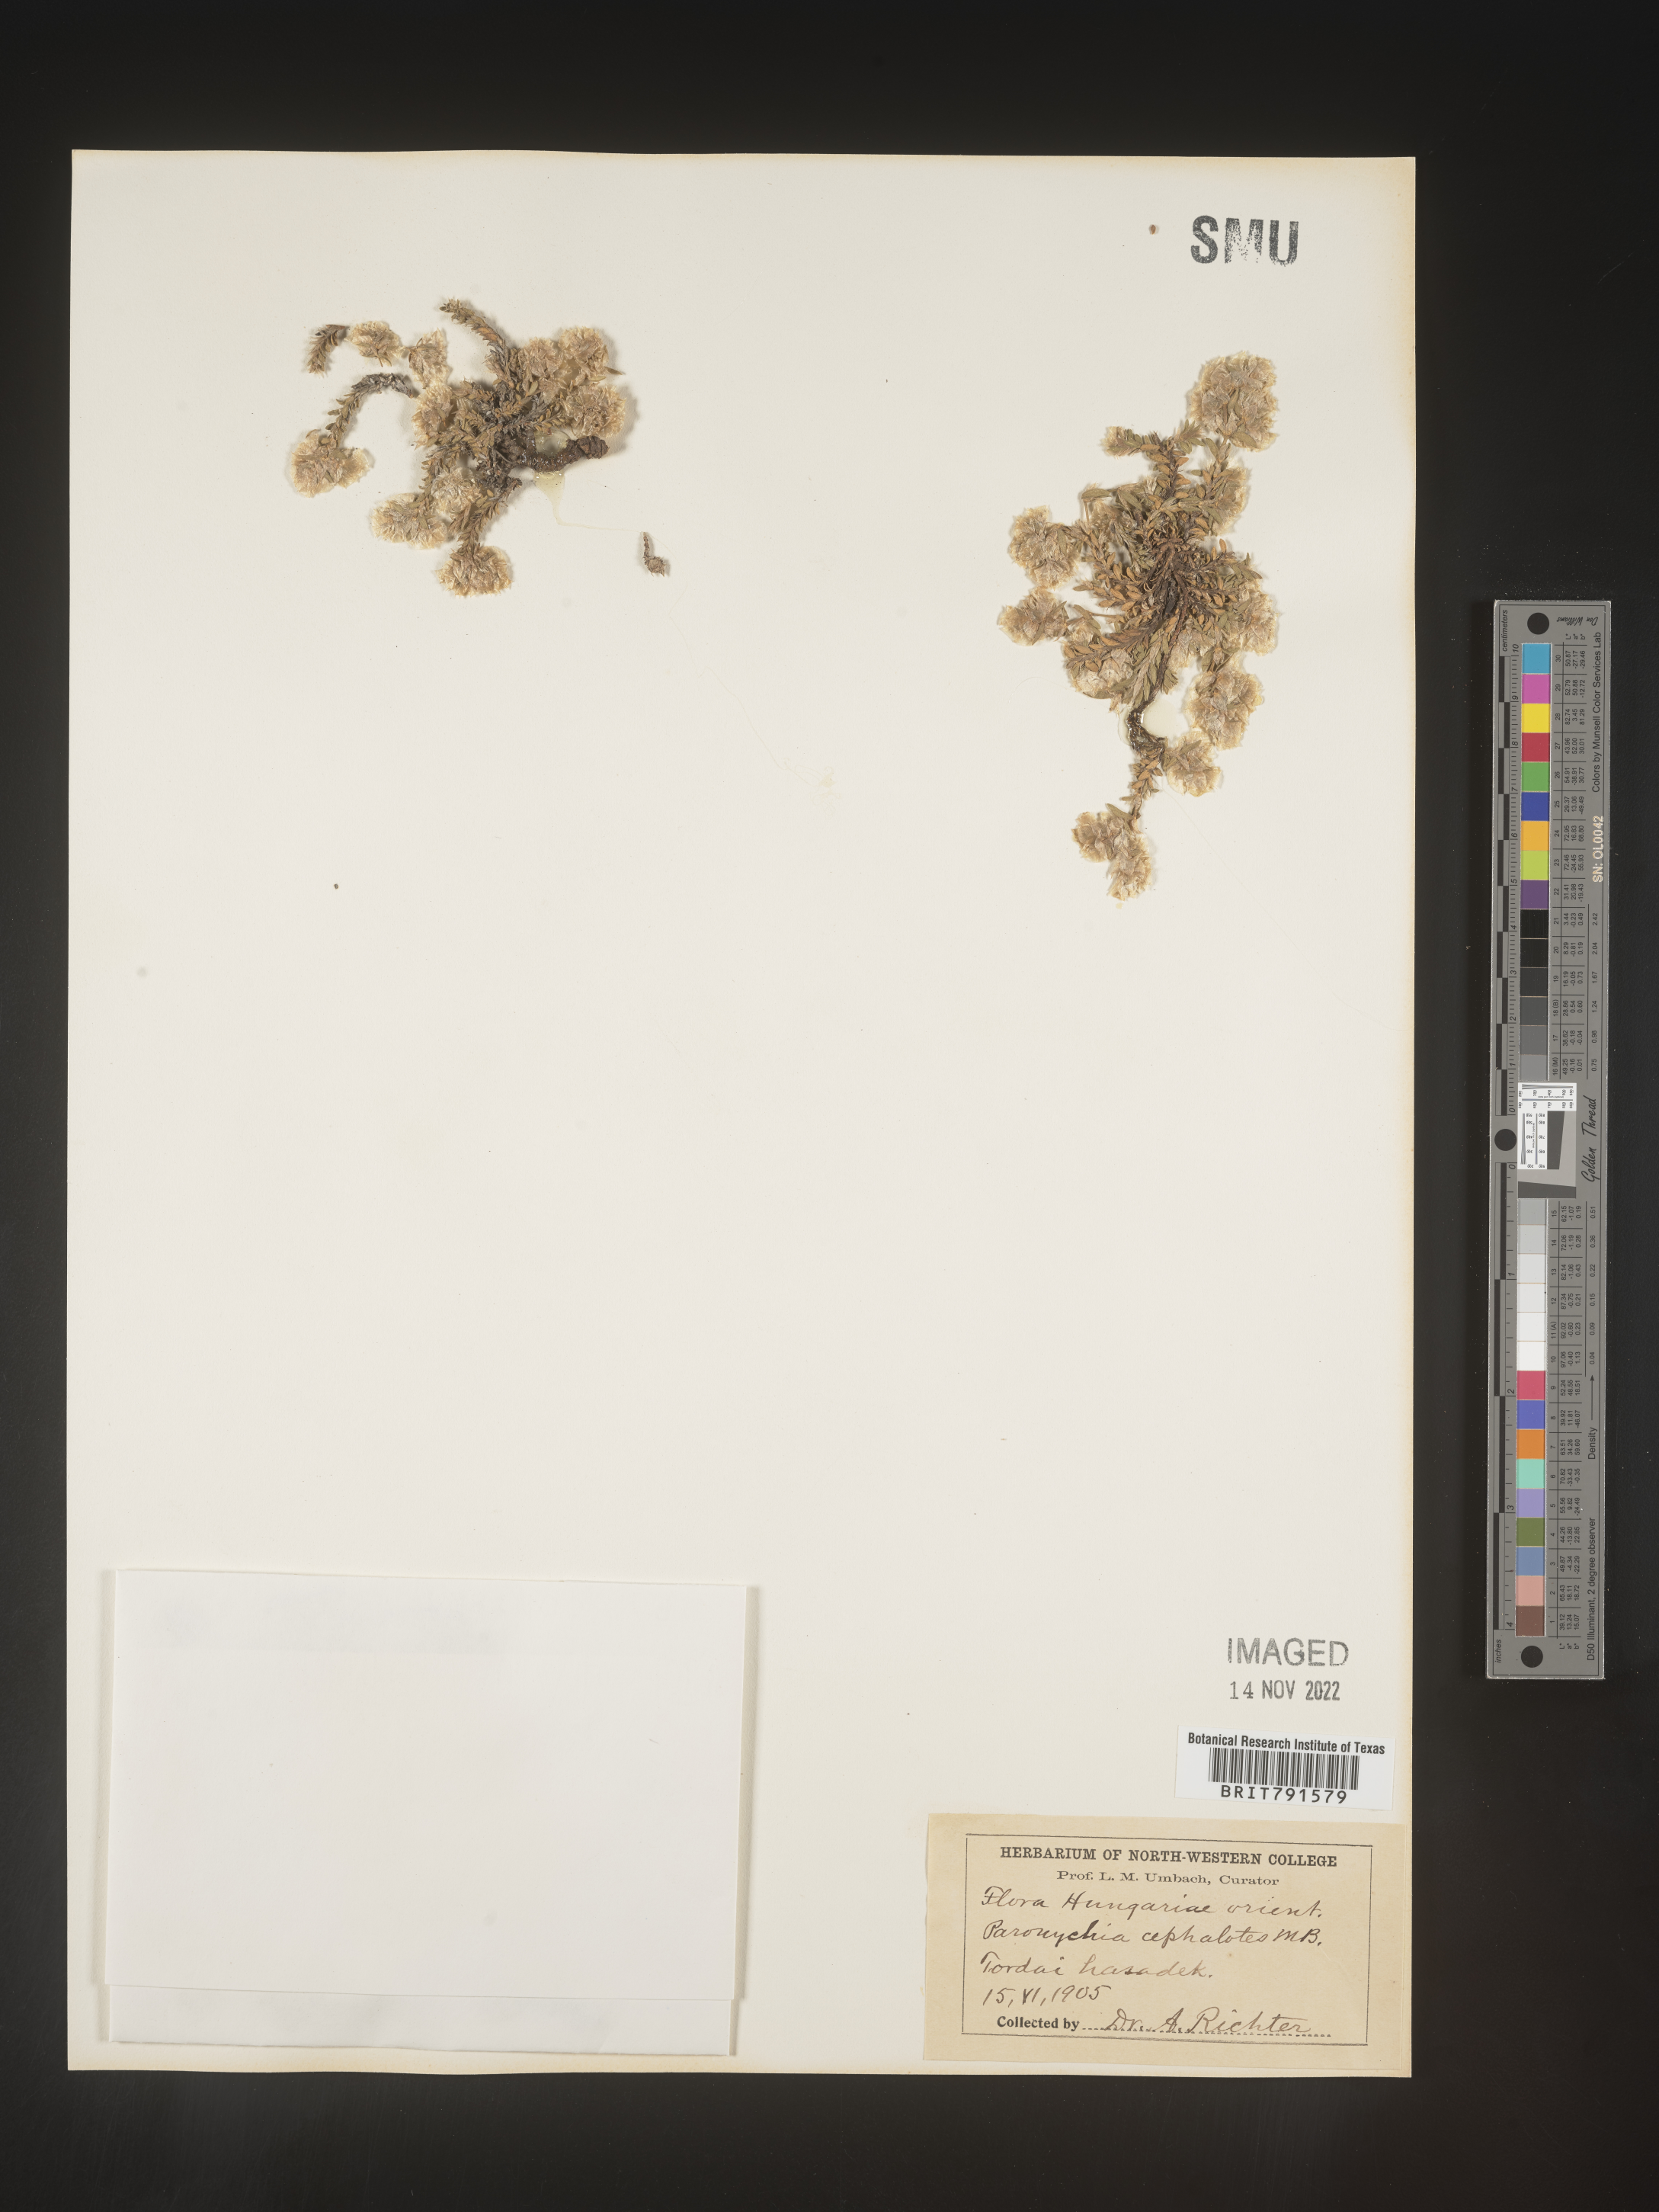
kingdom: Plantae
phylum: Tracheophyta
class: Magnoliopsida
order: Caryophyllales
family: Caryophyllaceae
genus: Paronychia
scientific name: Paronychia
